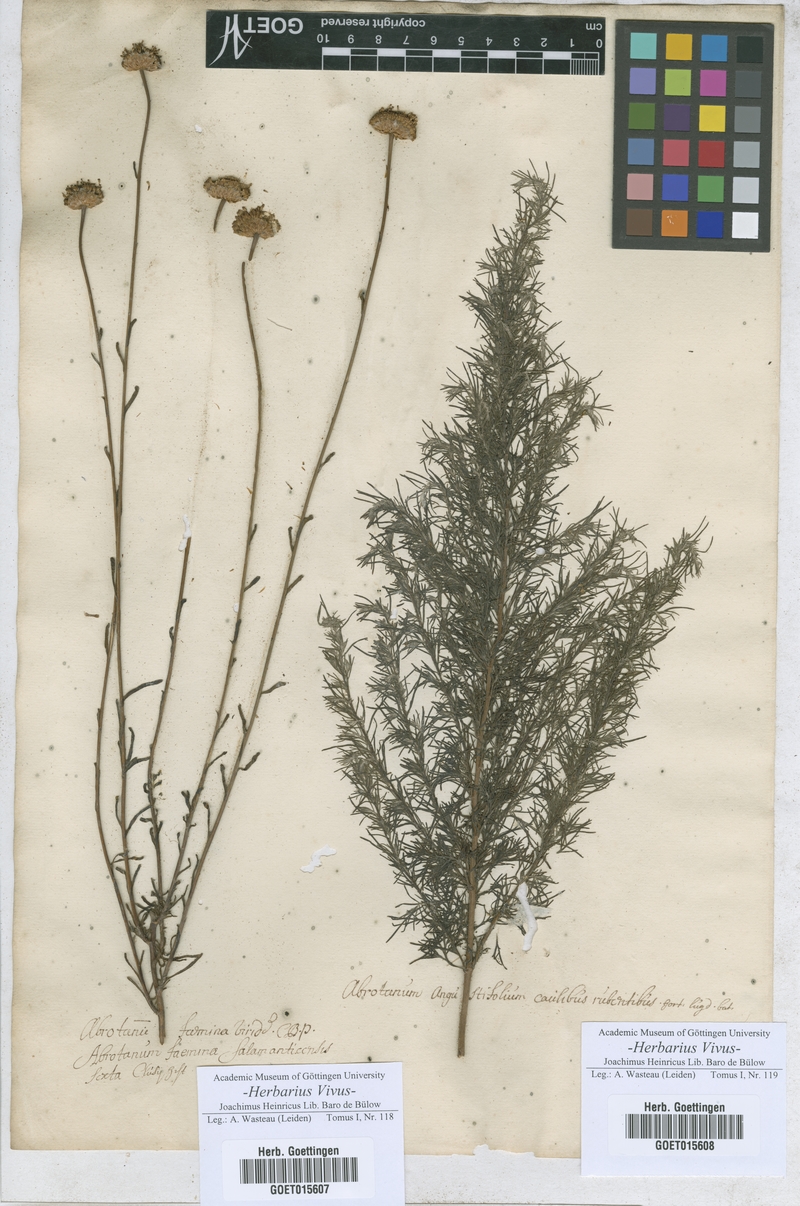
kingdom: Plantae
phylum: Tracheophyta
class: Magnoliopsida
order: Asterales
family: Asteraceae
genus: Santolina
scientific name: Santolina rosmarinifolia
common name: Holy-flax
